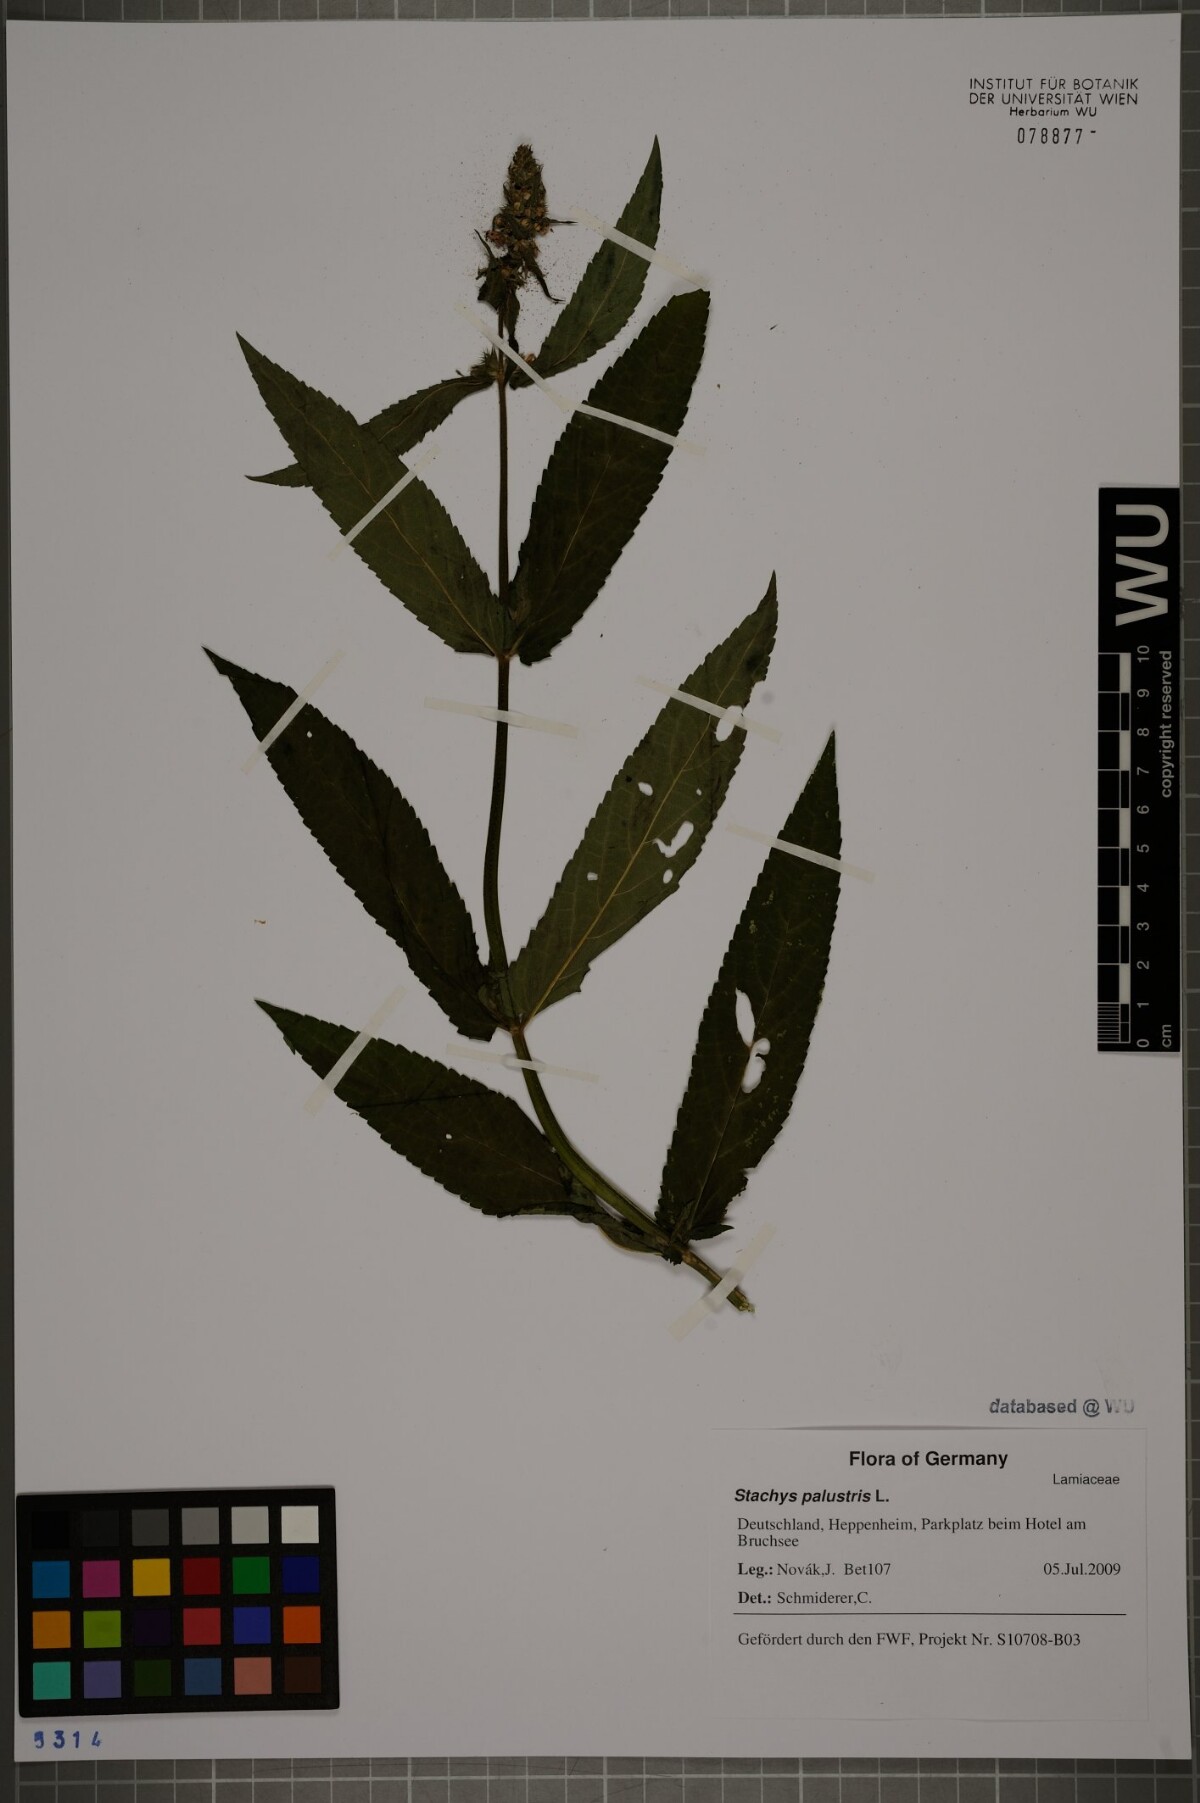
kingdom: Plantae
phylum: Tracheophyta
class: Magnoliopsida
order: Lamiales
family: Lamiaceae
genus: Stachys
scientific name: Stachys palustris
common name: Marsh woundwort
